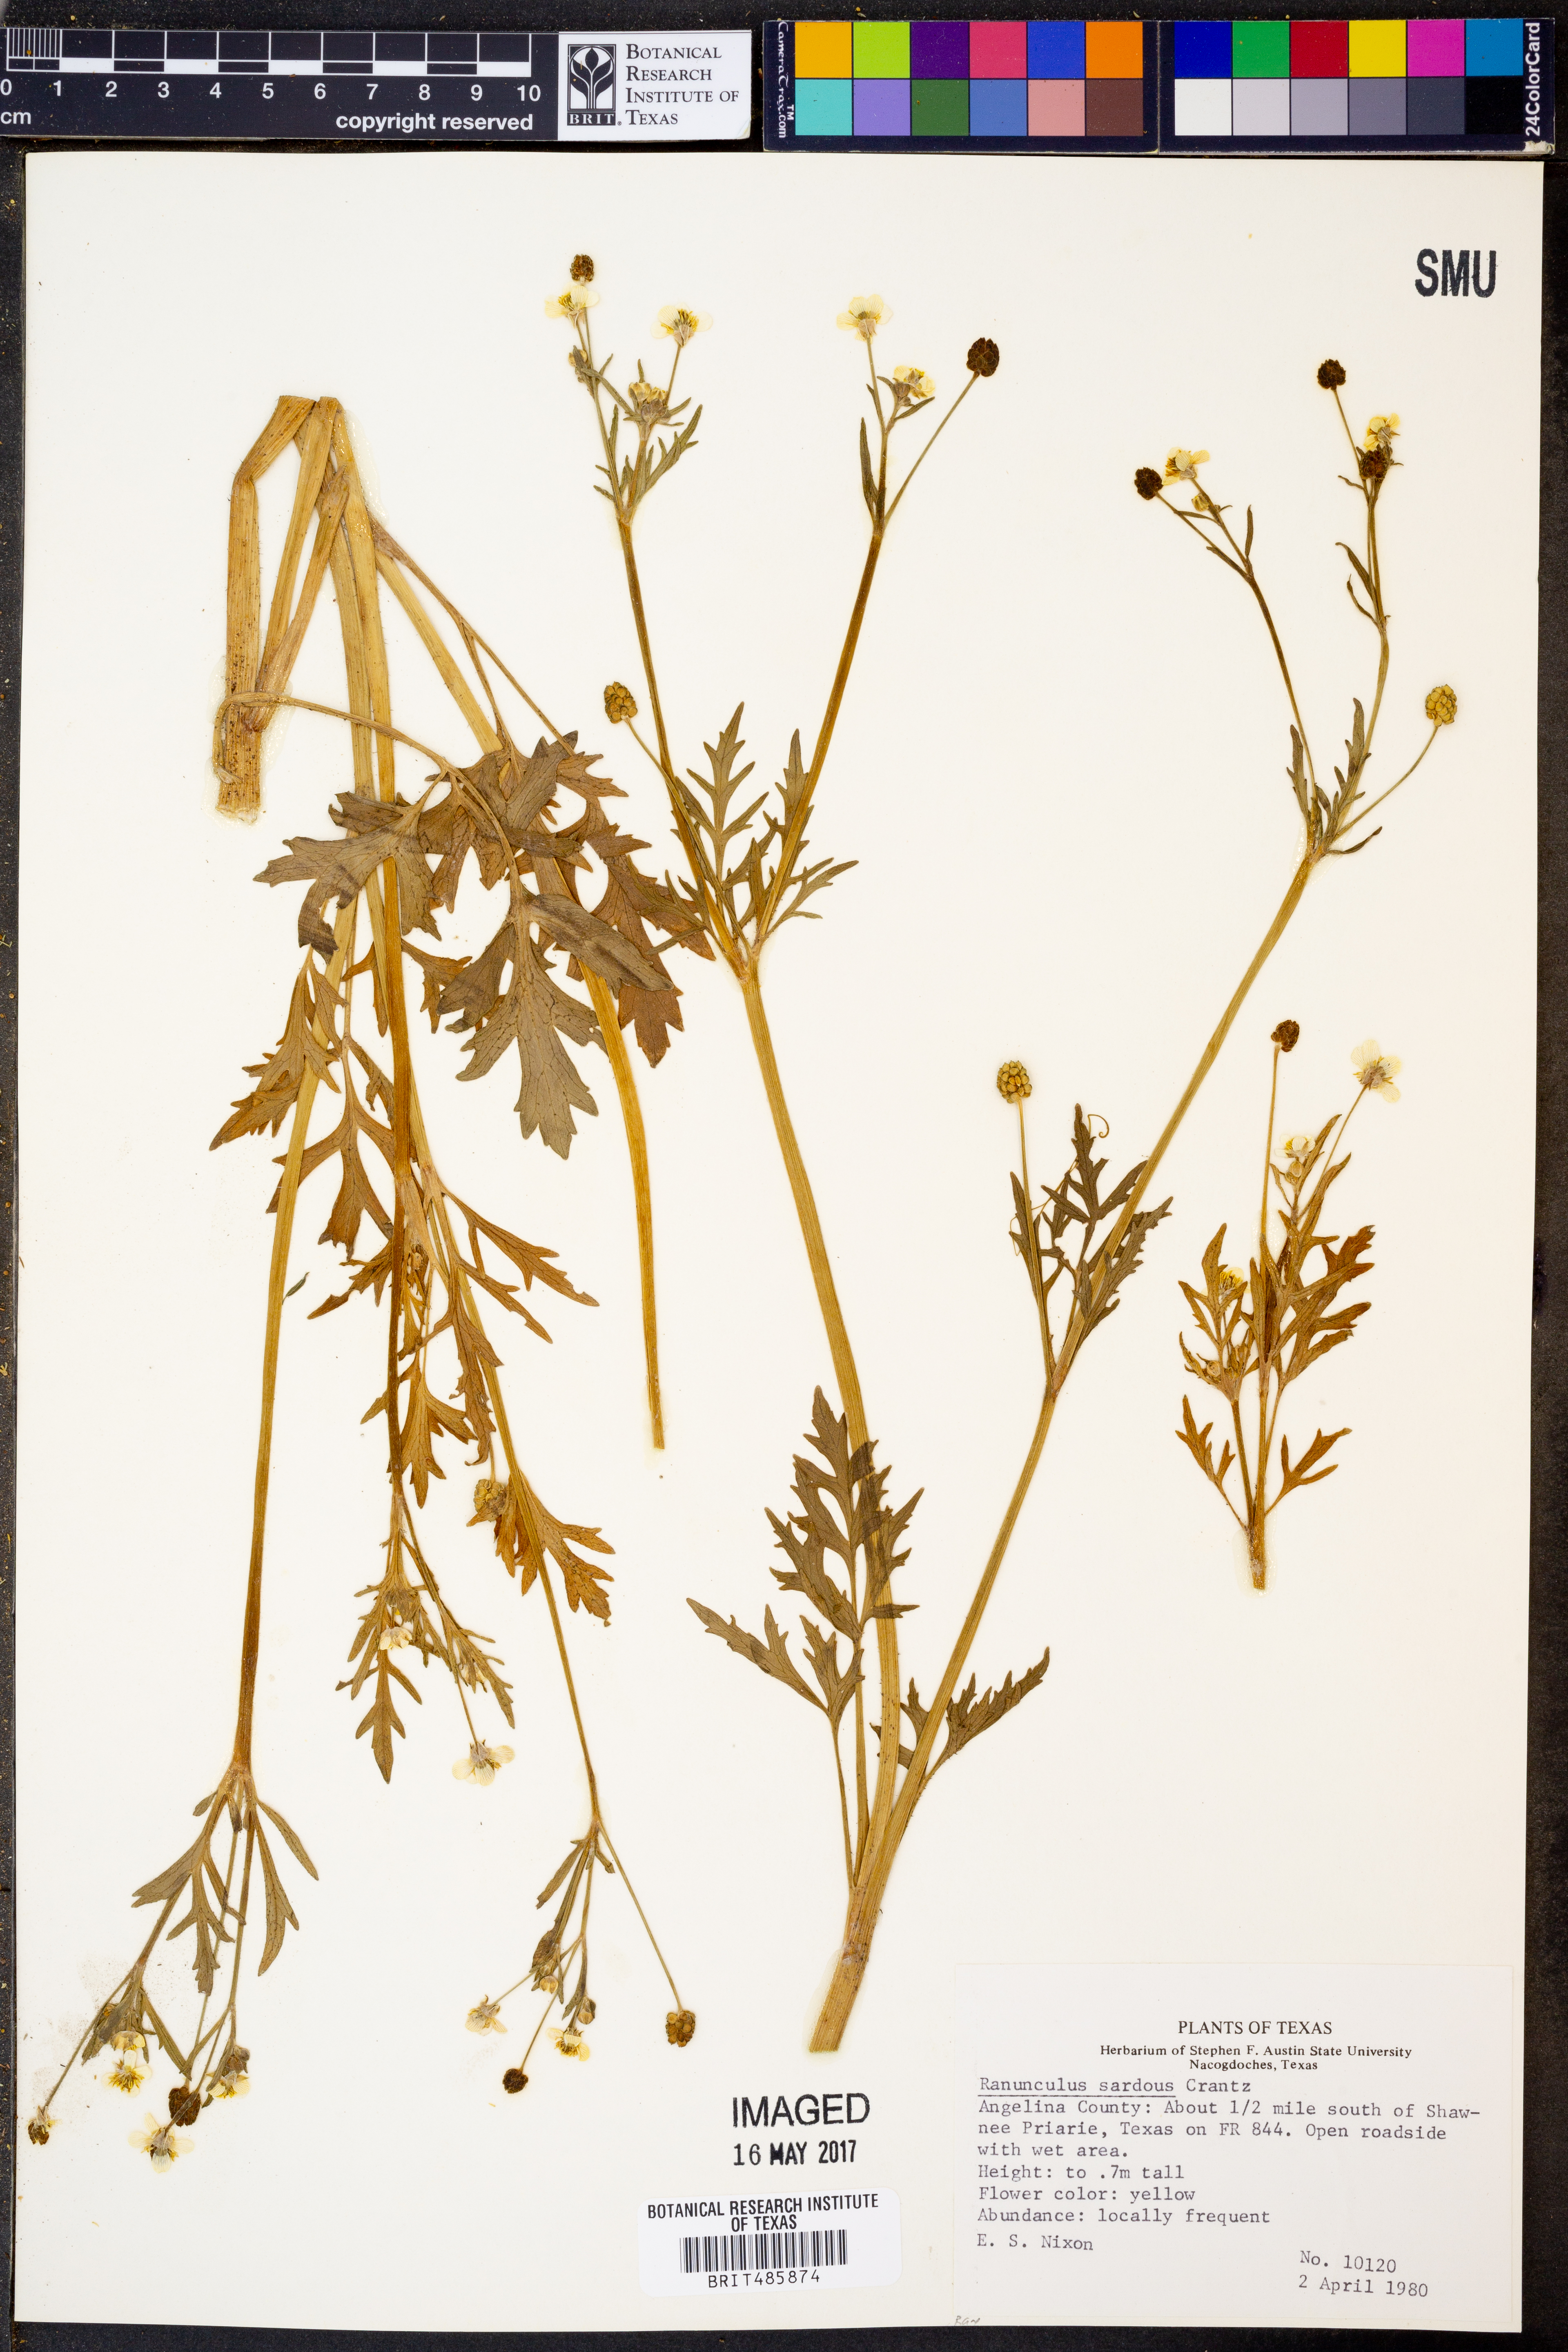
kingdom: Plantae
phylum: Tracheophyta
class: Magnoliopsida
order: Ranunculales
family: Ranunculaceae
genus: Ranunculus
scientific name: Ranunculus sardous
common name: Hairy buttercup
